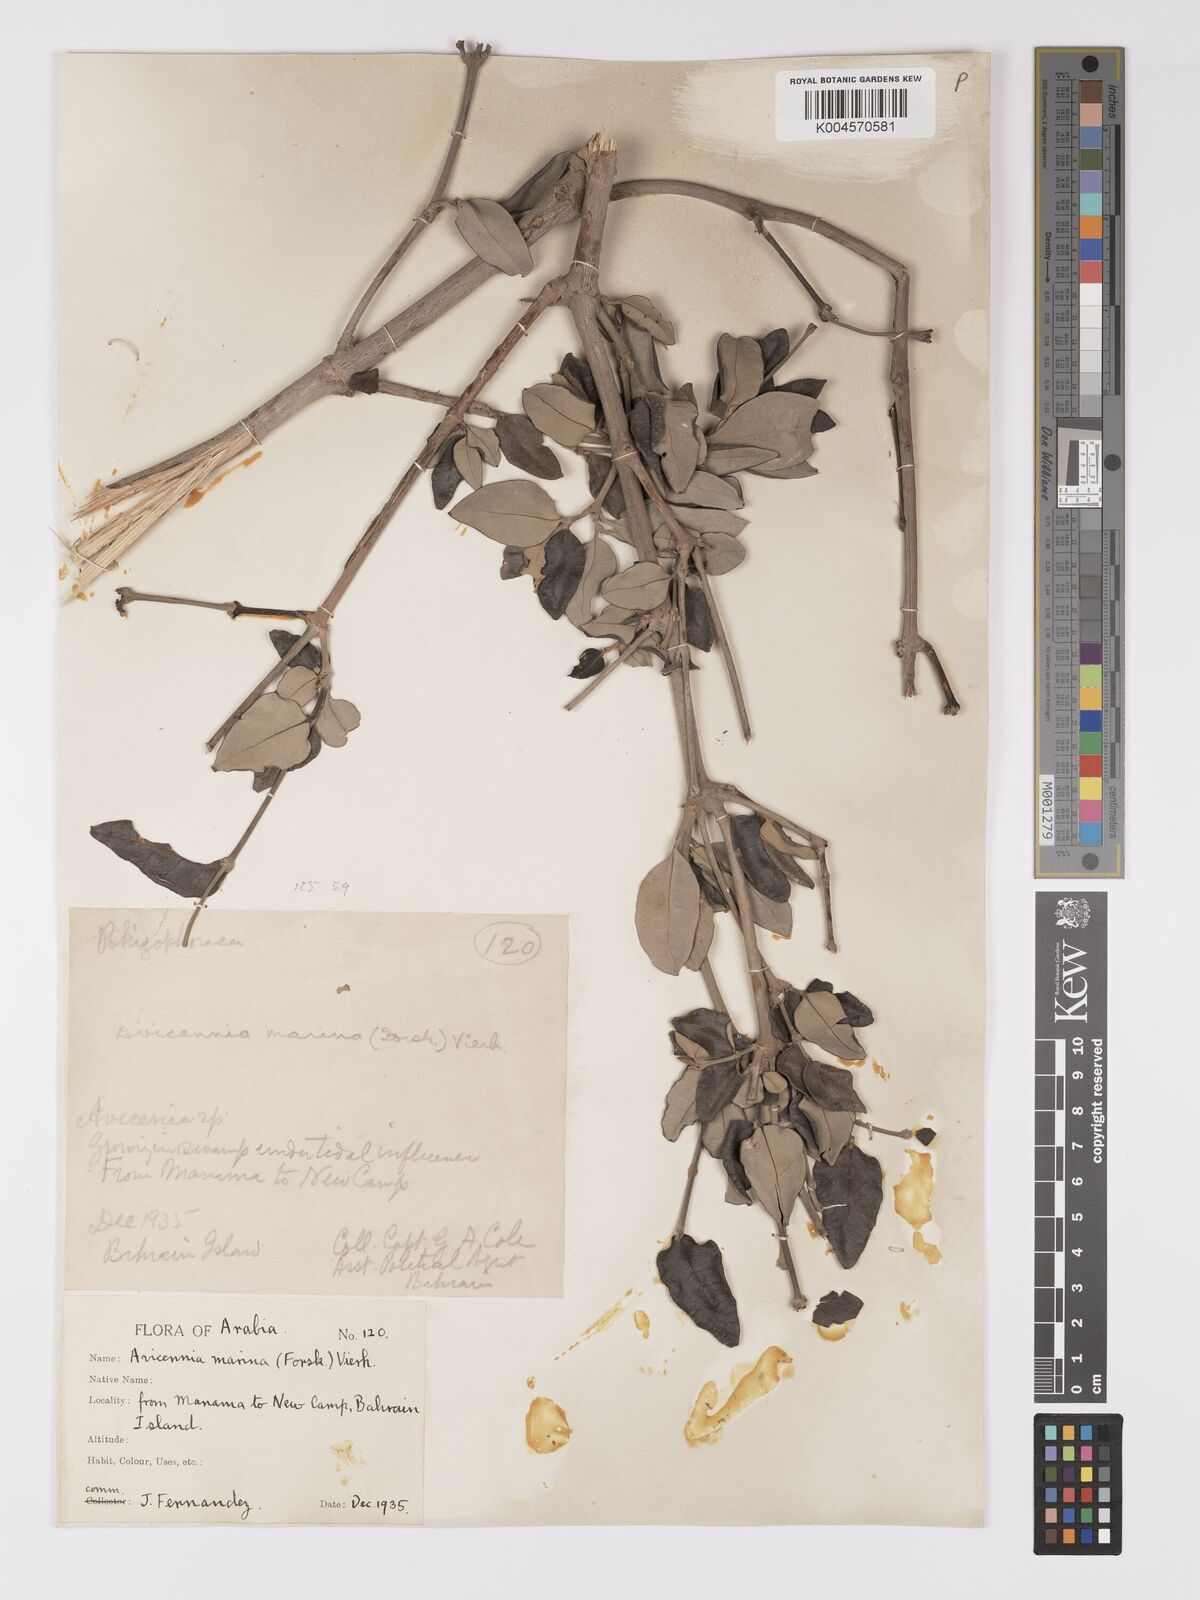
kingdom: Plantae
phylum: Tracheophyta
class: Magnoliopsida
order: Lamiales
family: Acanthaceae
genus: Avicennia
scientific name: Avicennia marina
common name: Gray mangrove
